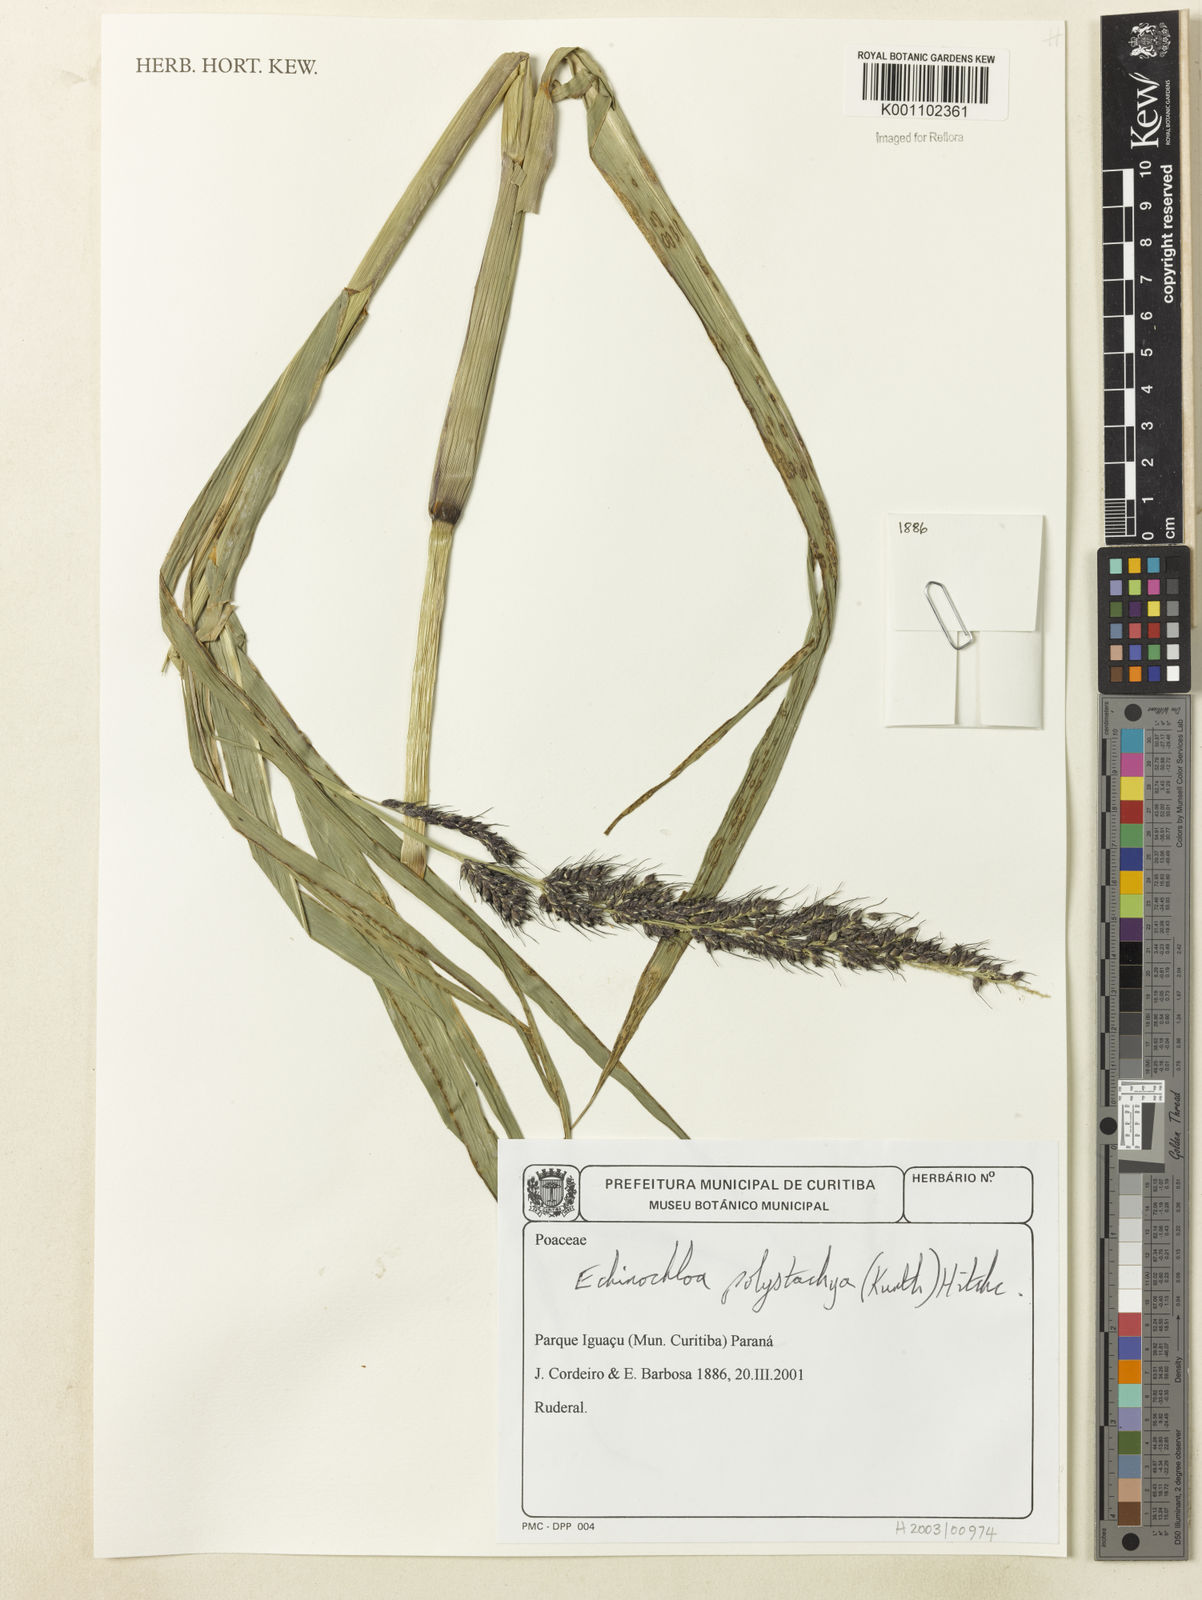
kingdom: Plantae
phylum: Tracheophyta
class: Liliopsida
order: Poales
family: Poaceae
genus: Echinochloa
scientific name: Echinochloa polystachya
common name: Creeping river grass
